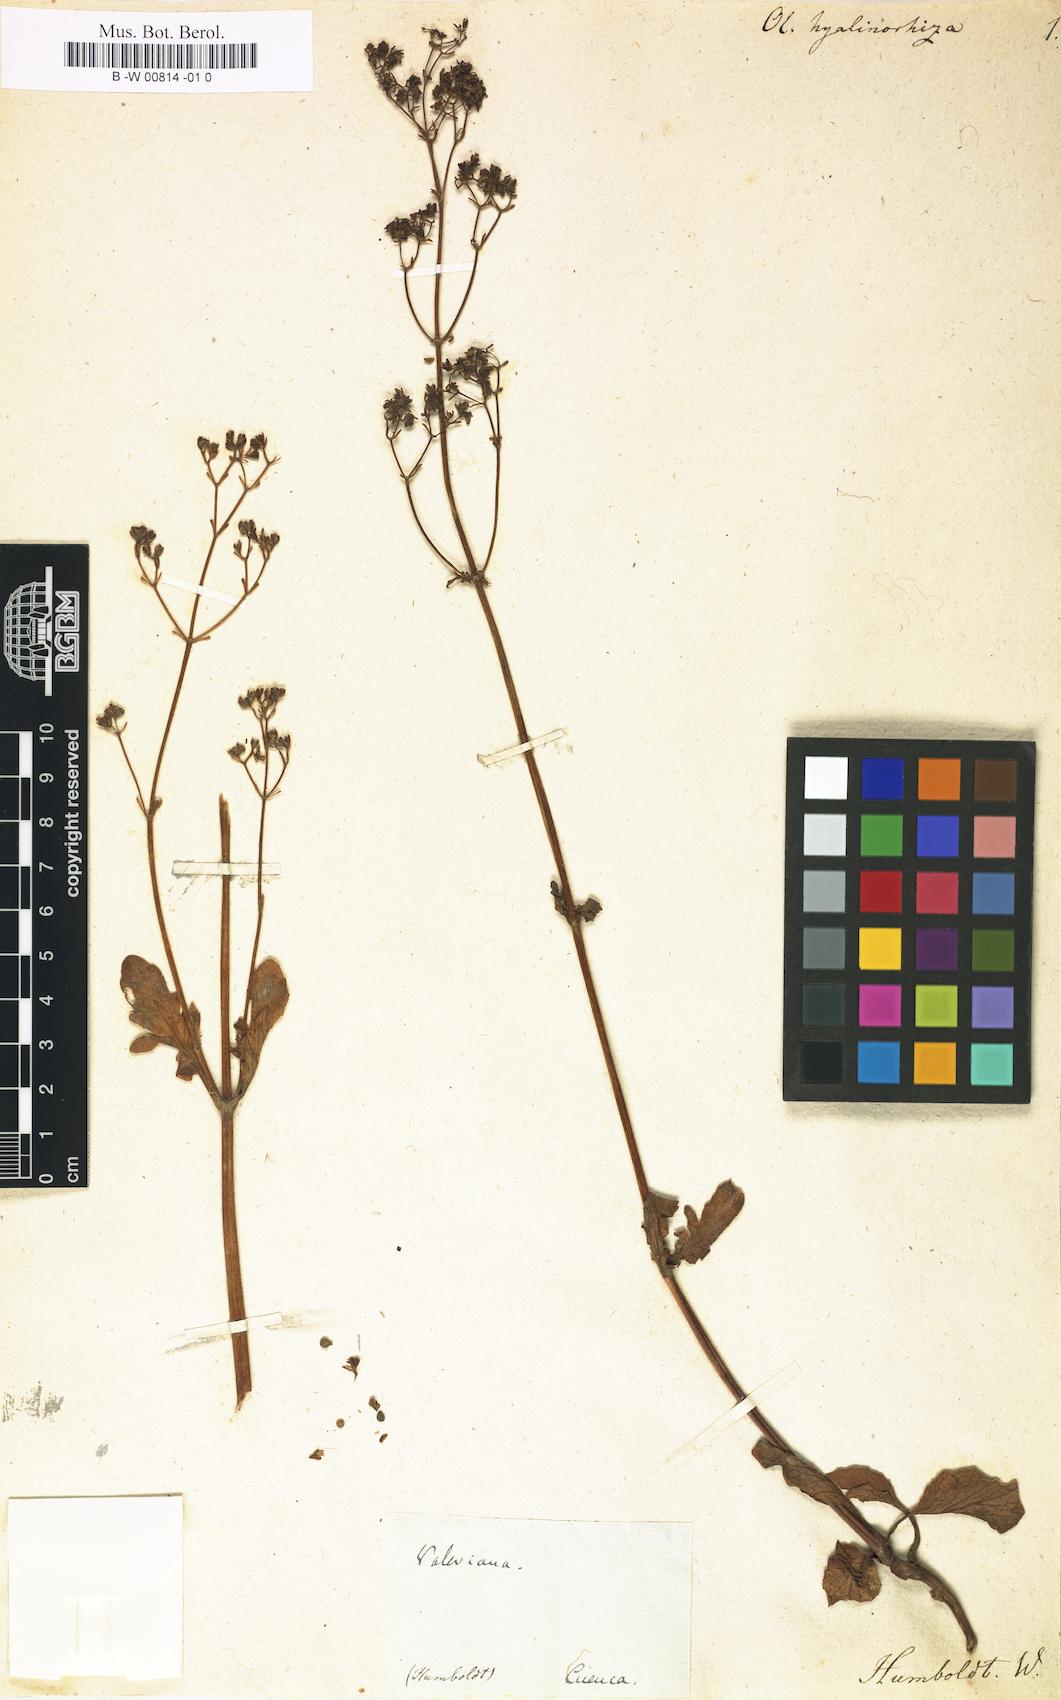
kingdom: Plantae
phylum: Tracheophyta
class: Magnoliopsida
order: Dipsacales
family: Caprifoliaceae
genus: Valeriana
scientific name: Valeriana hyalinorrhiza
